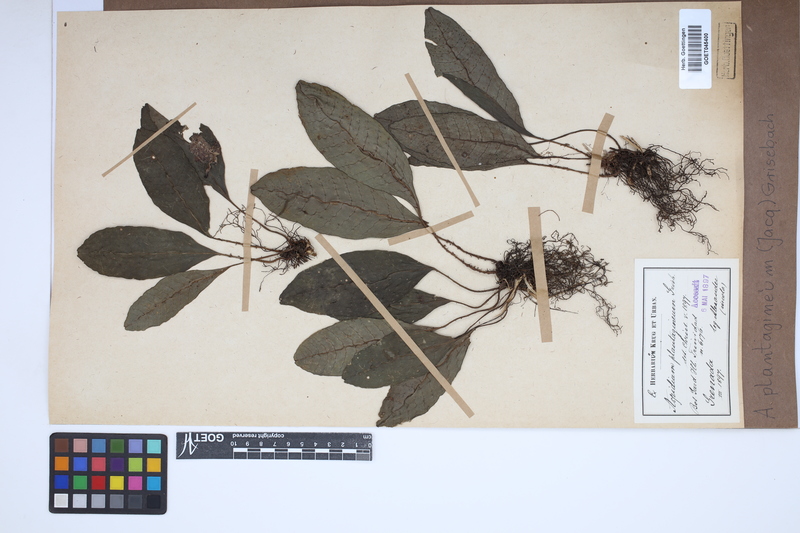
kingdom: Plantae
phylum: Tracheophyta
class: Polypodiopsida
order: Polypodiales
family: Lomariopsidaceae
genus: Dracoglossum
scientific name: Dracoglossum plantagineum
